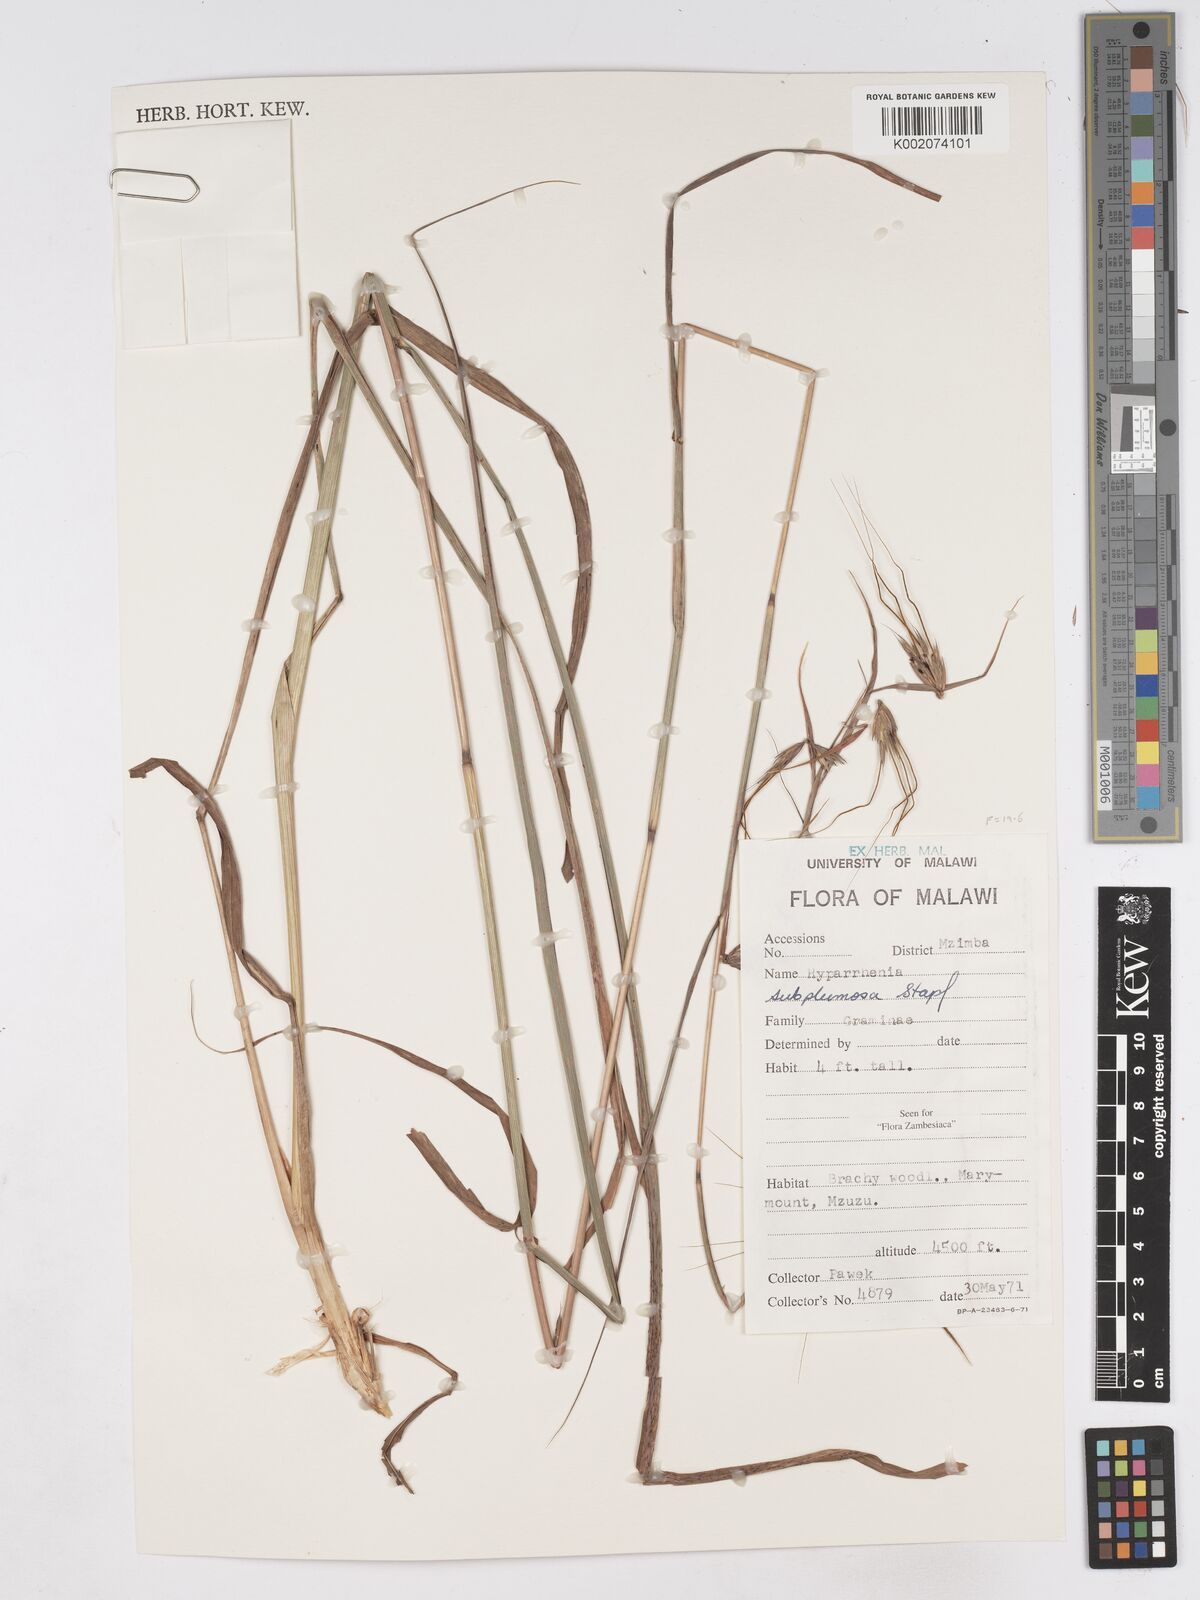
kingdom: Plantae
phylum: Tracheophyta
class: Liliopsida
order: Poales
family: Poaceae
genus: Hyparrhenia
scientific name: Hyparrhenia subplumosa
